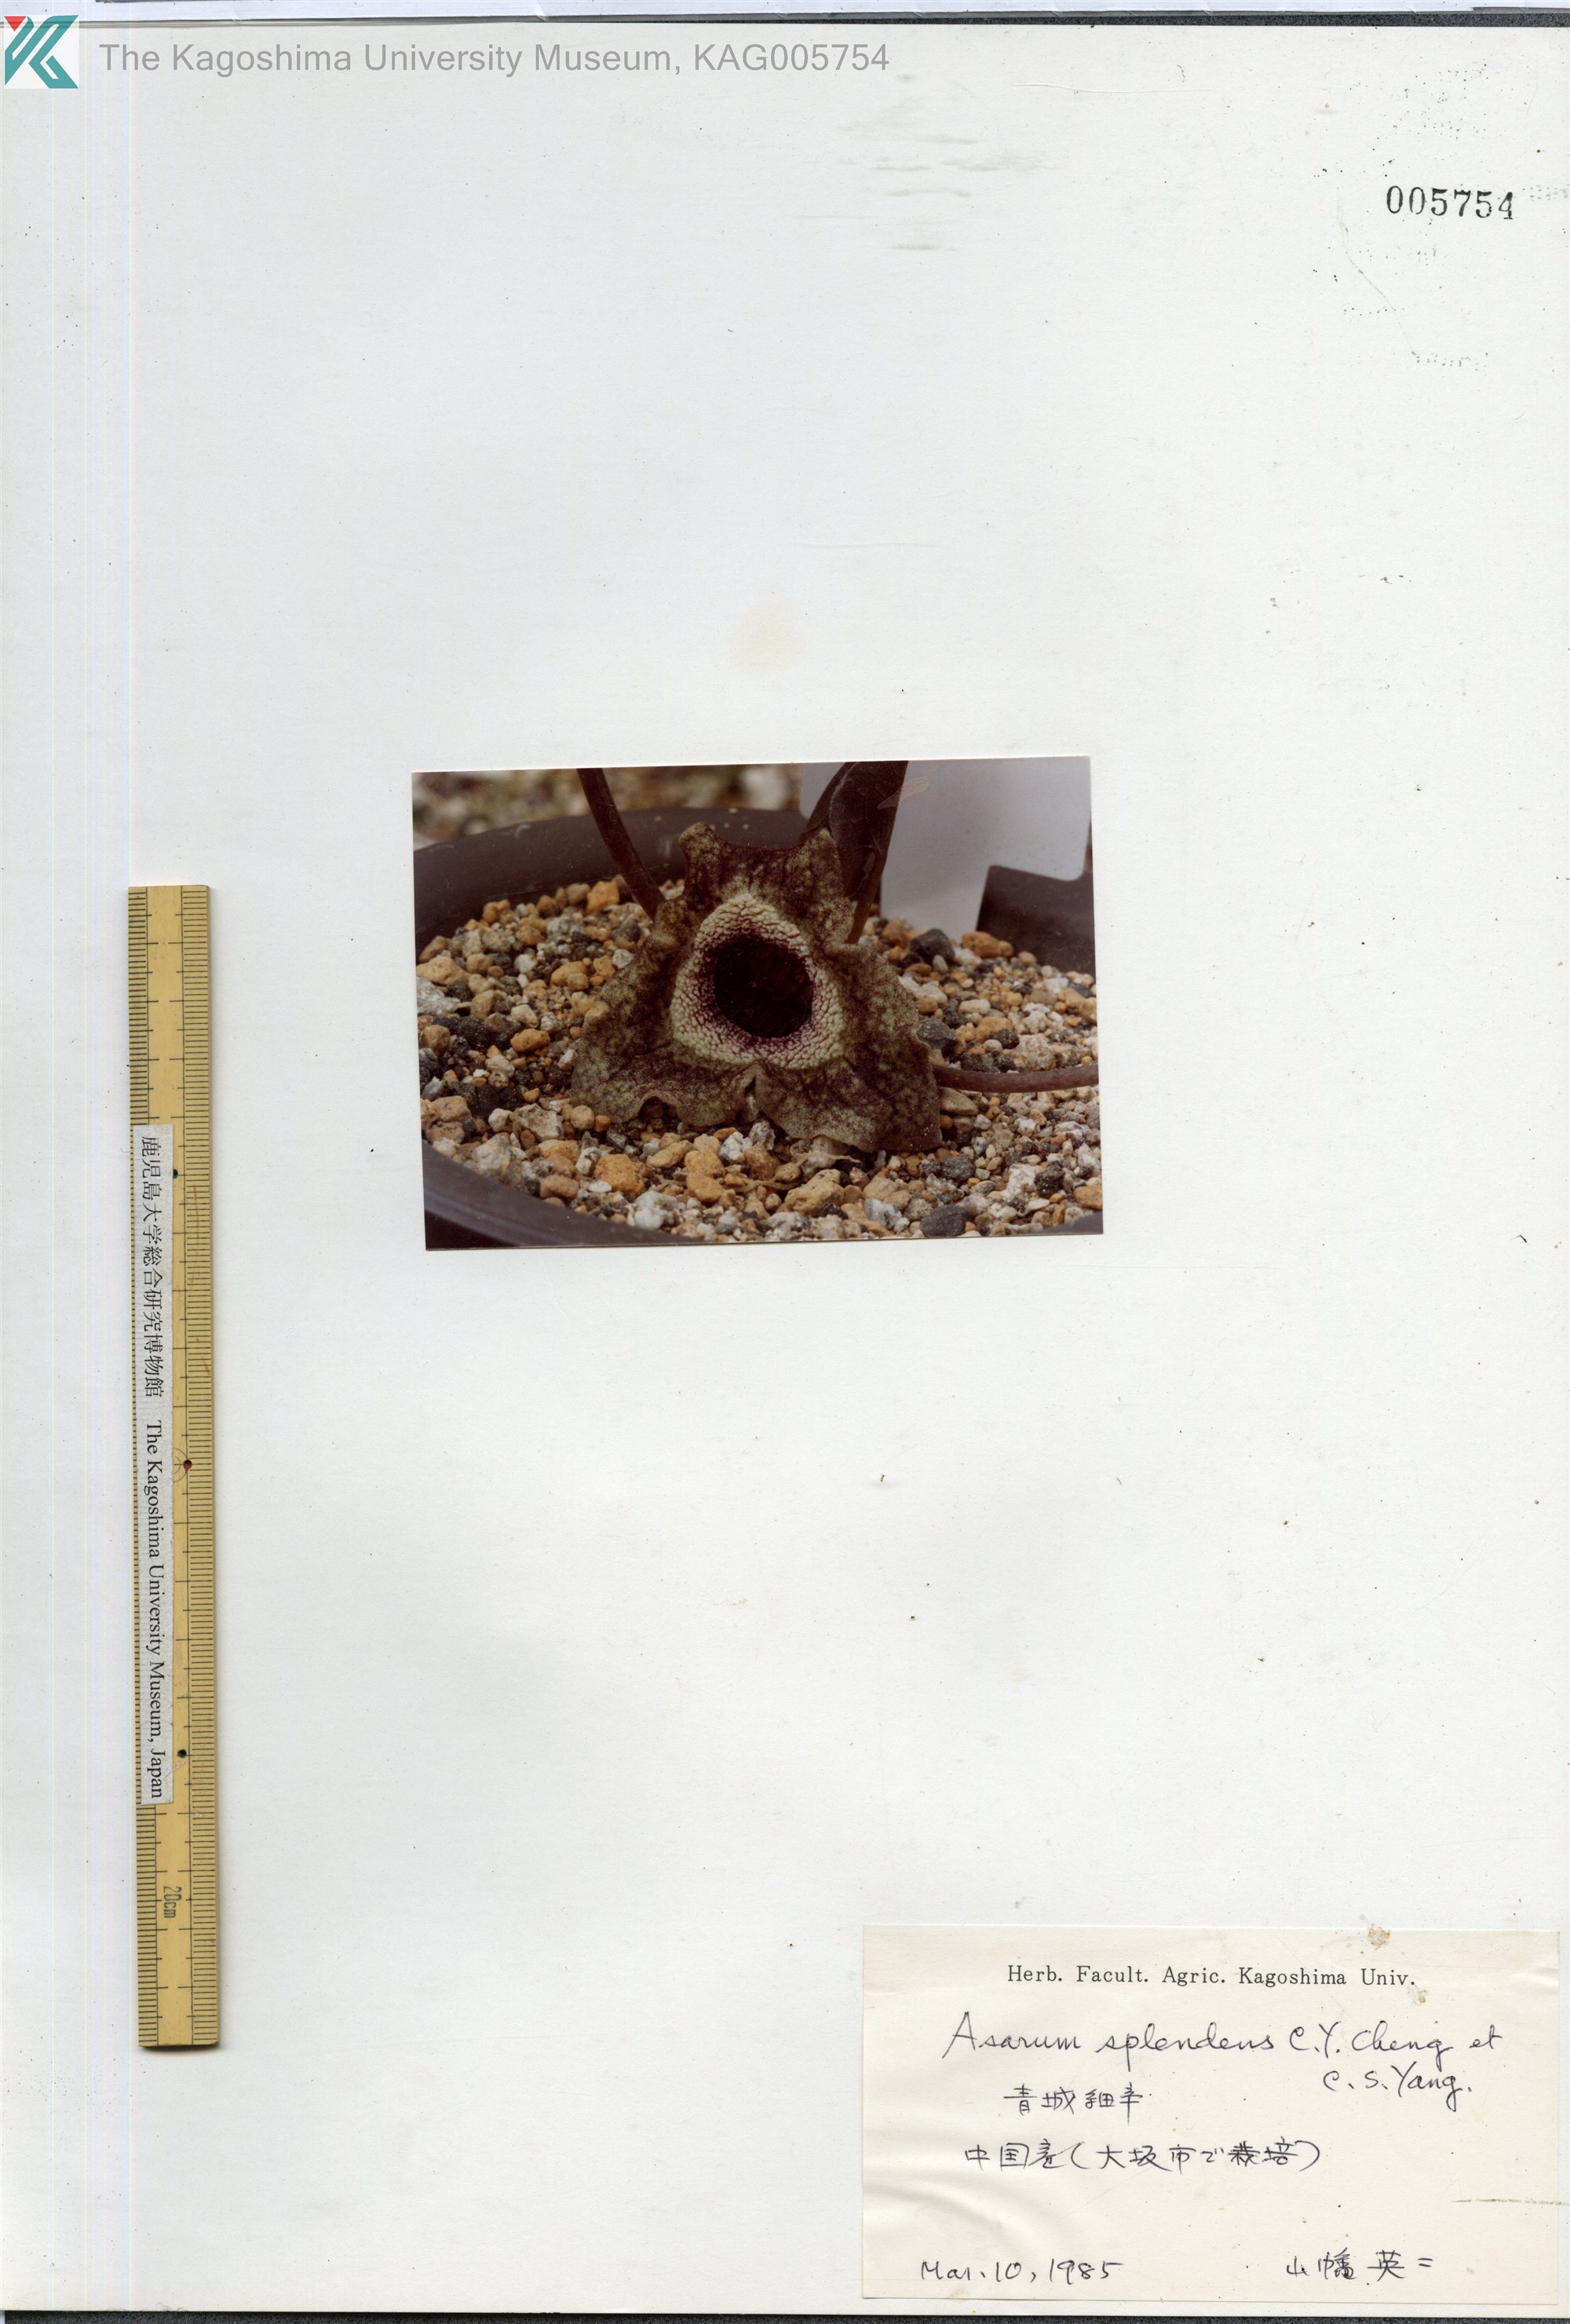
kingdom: Plantae
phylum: Tracheophyta
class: Magnoliopsida
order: Piperales
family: Aristolochiaceae
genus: Asarum
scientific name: Asarum
